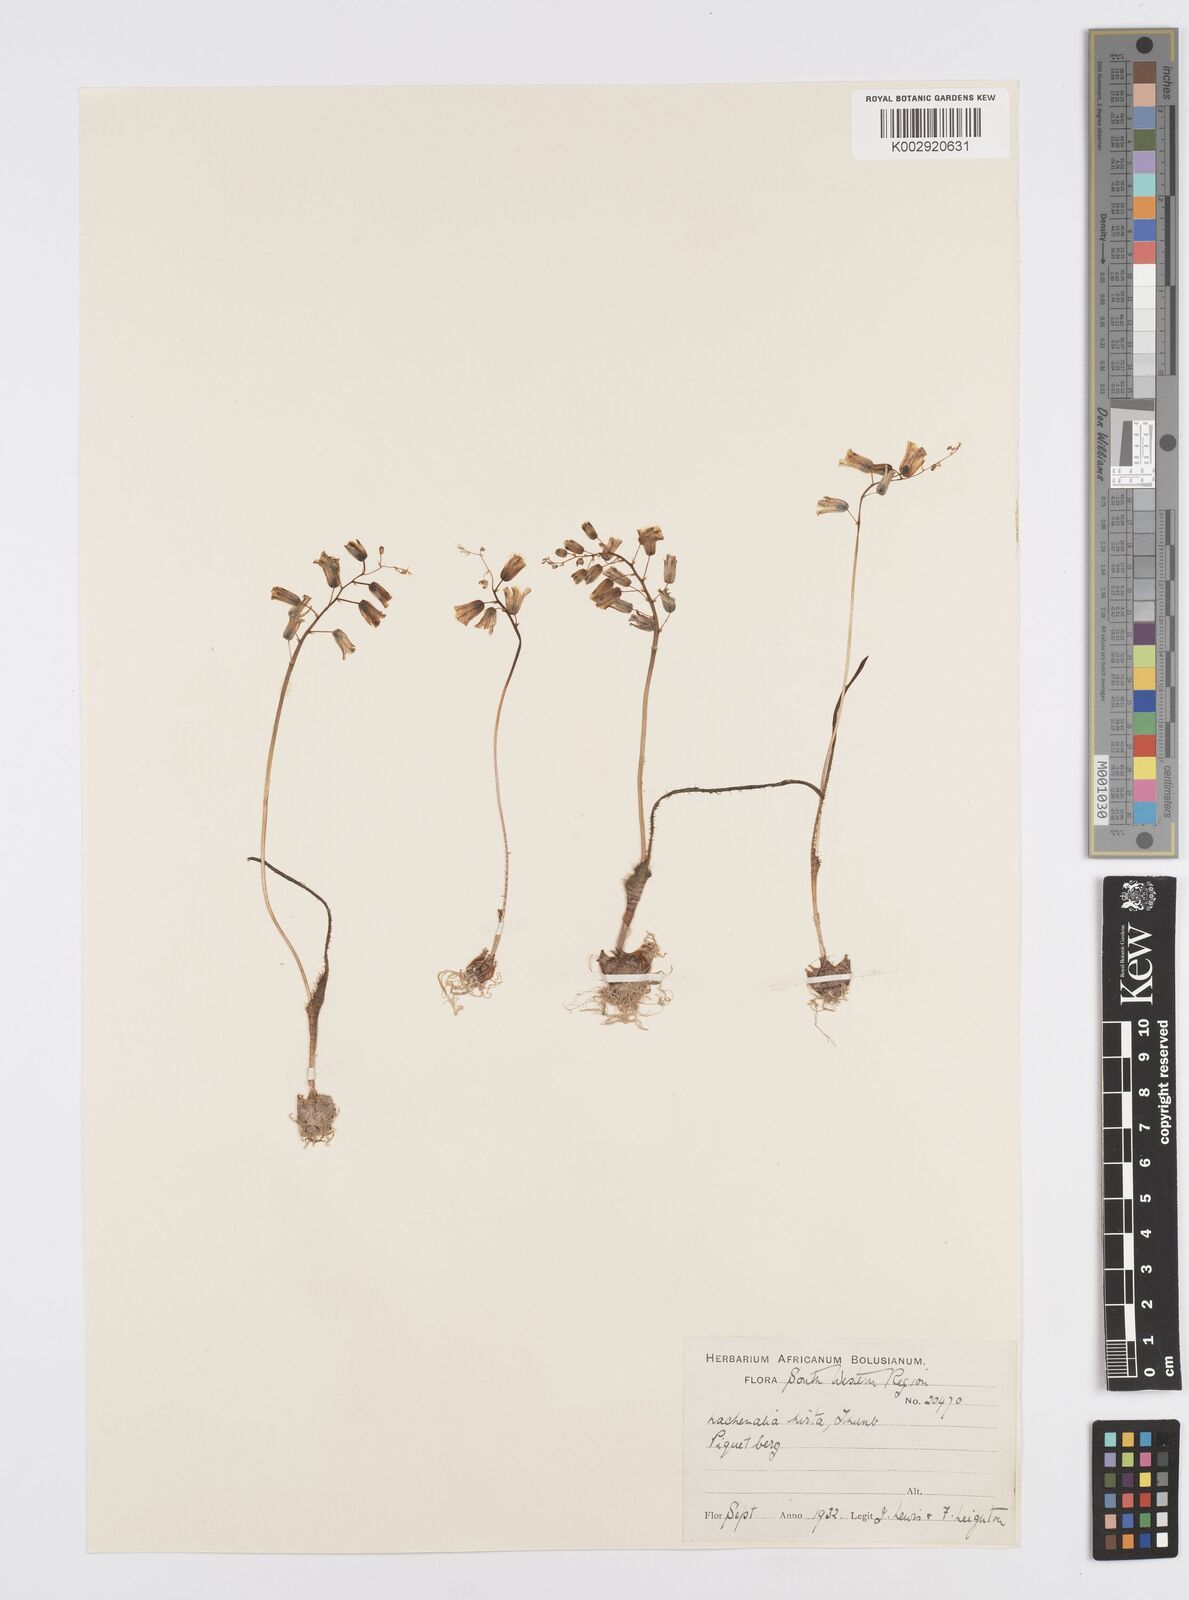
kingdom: Plantae
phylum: Tracheophyta
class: Liliopsida
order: Asparagales
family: Asparagaceae
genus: Lachenalia
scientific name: Lachenalia hirta
